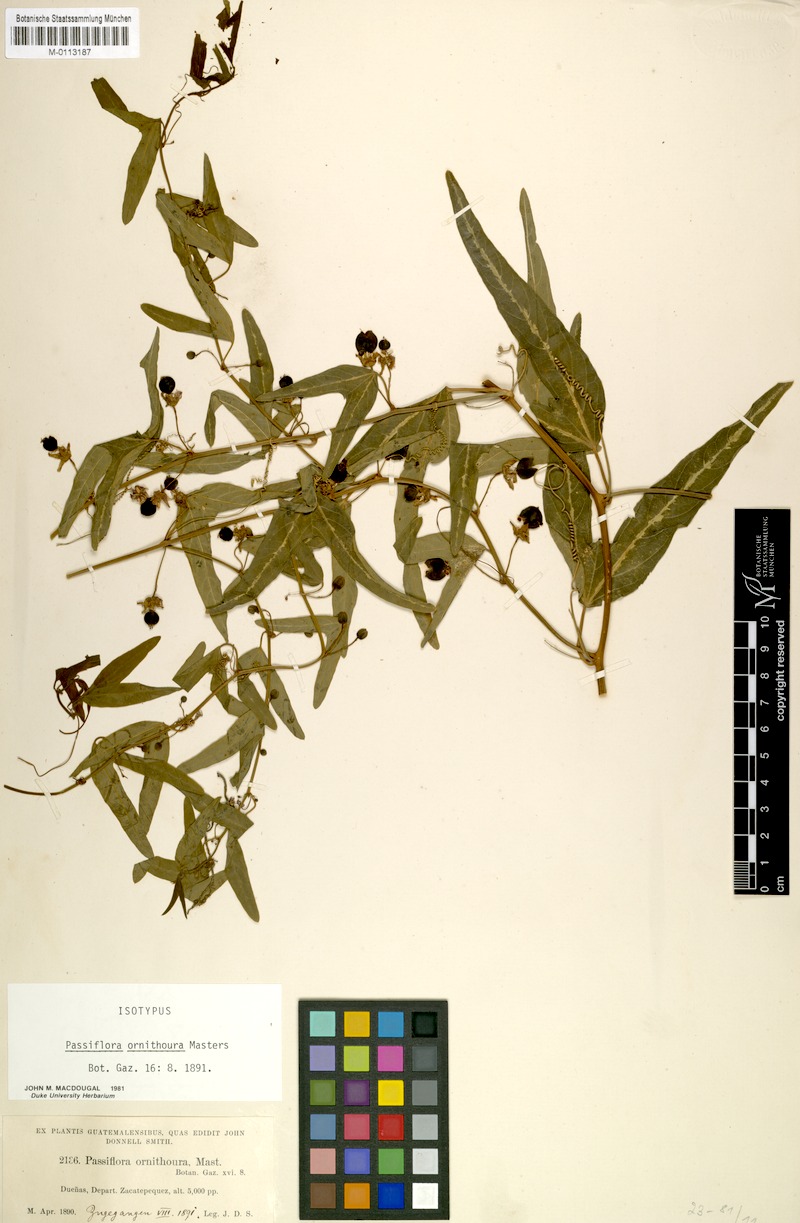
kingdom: Plantae
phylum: Tracheophyta
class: Magnoliopsida
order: Malpighiales
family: Passifloraceae
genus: Passiflora
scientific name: Passiflora ornithoura
